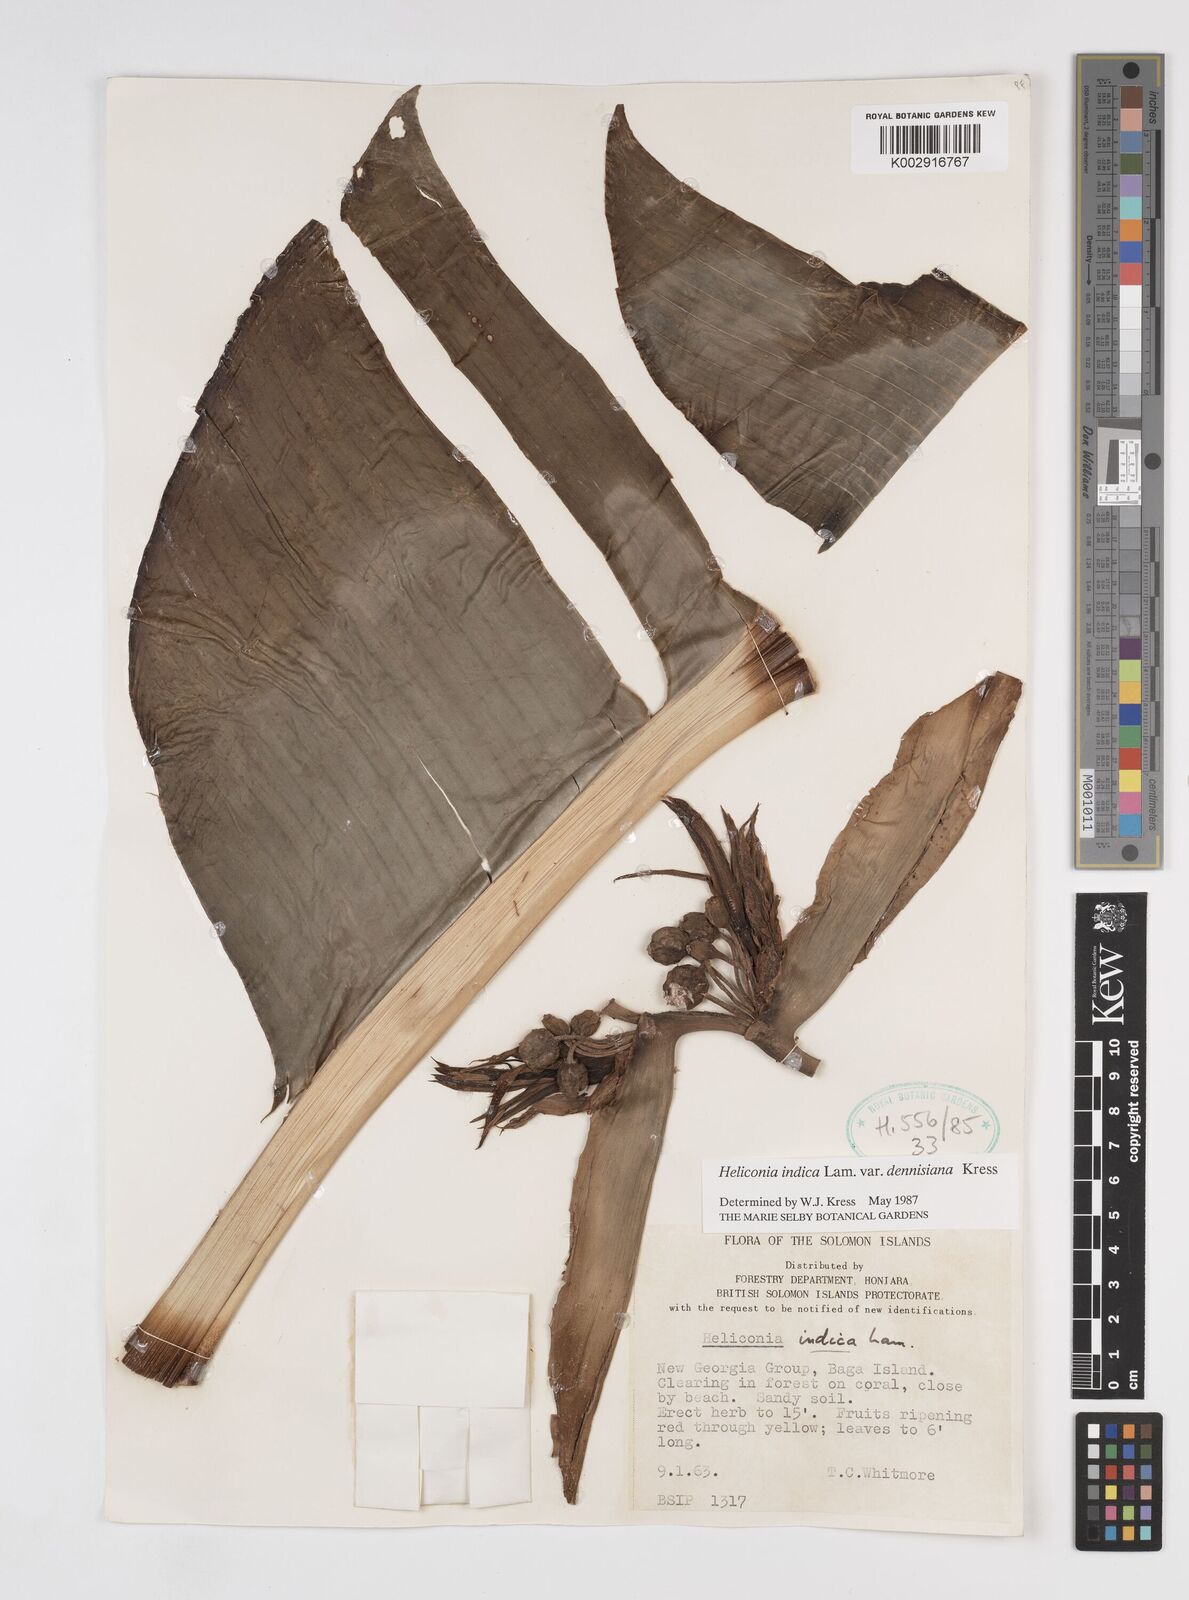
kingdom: Plantae
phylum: Tracheophyta
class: Liliopsida
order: Zingiberales
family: Heliconiaceae
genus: Heliconia
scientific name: Heliconia indica
